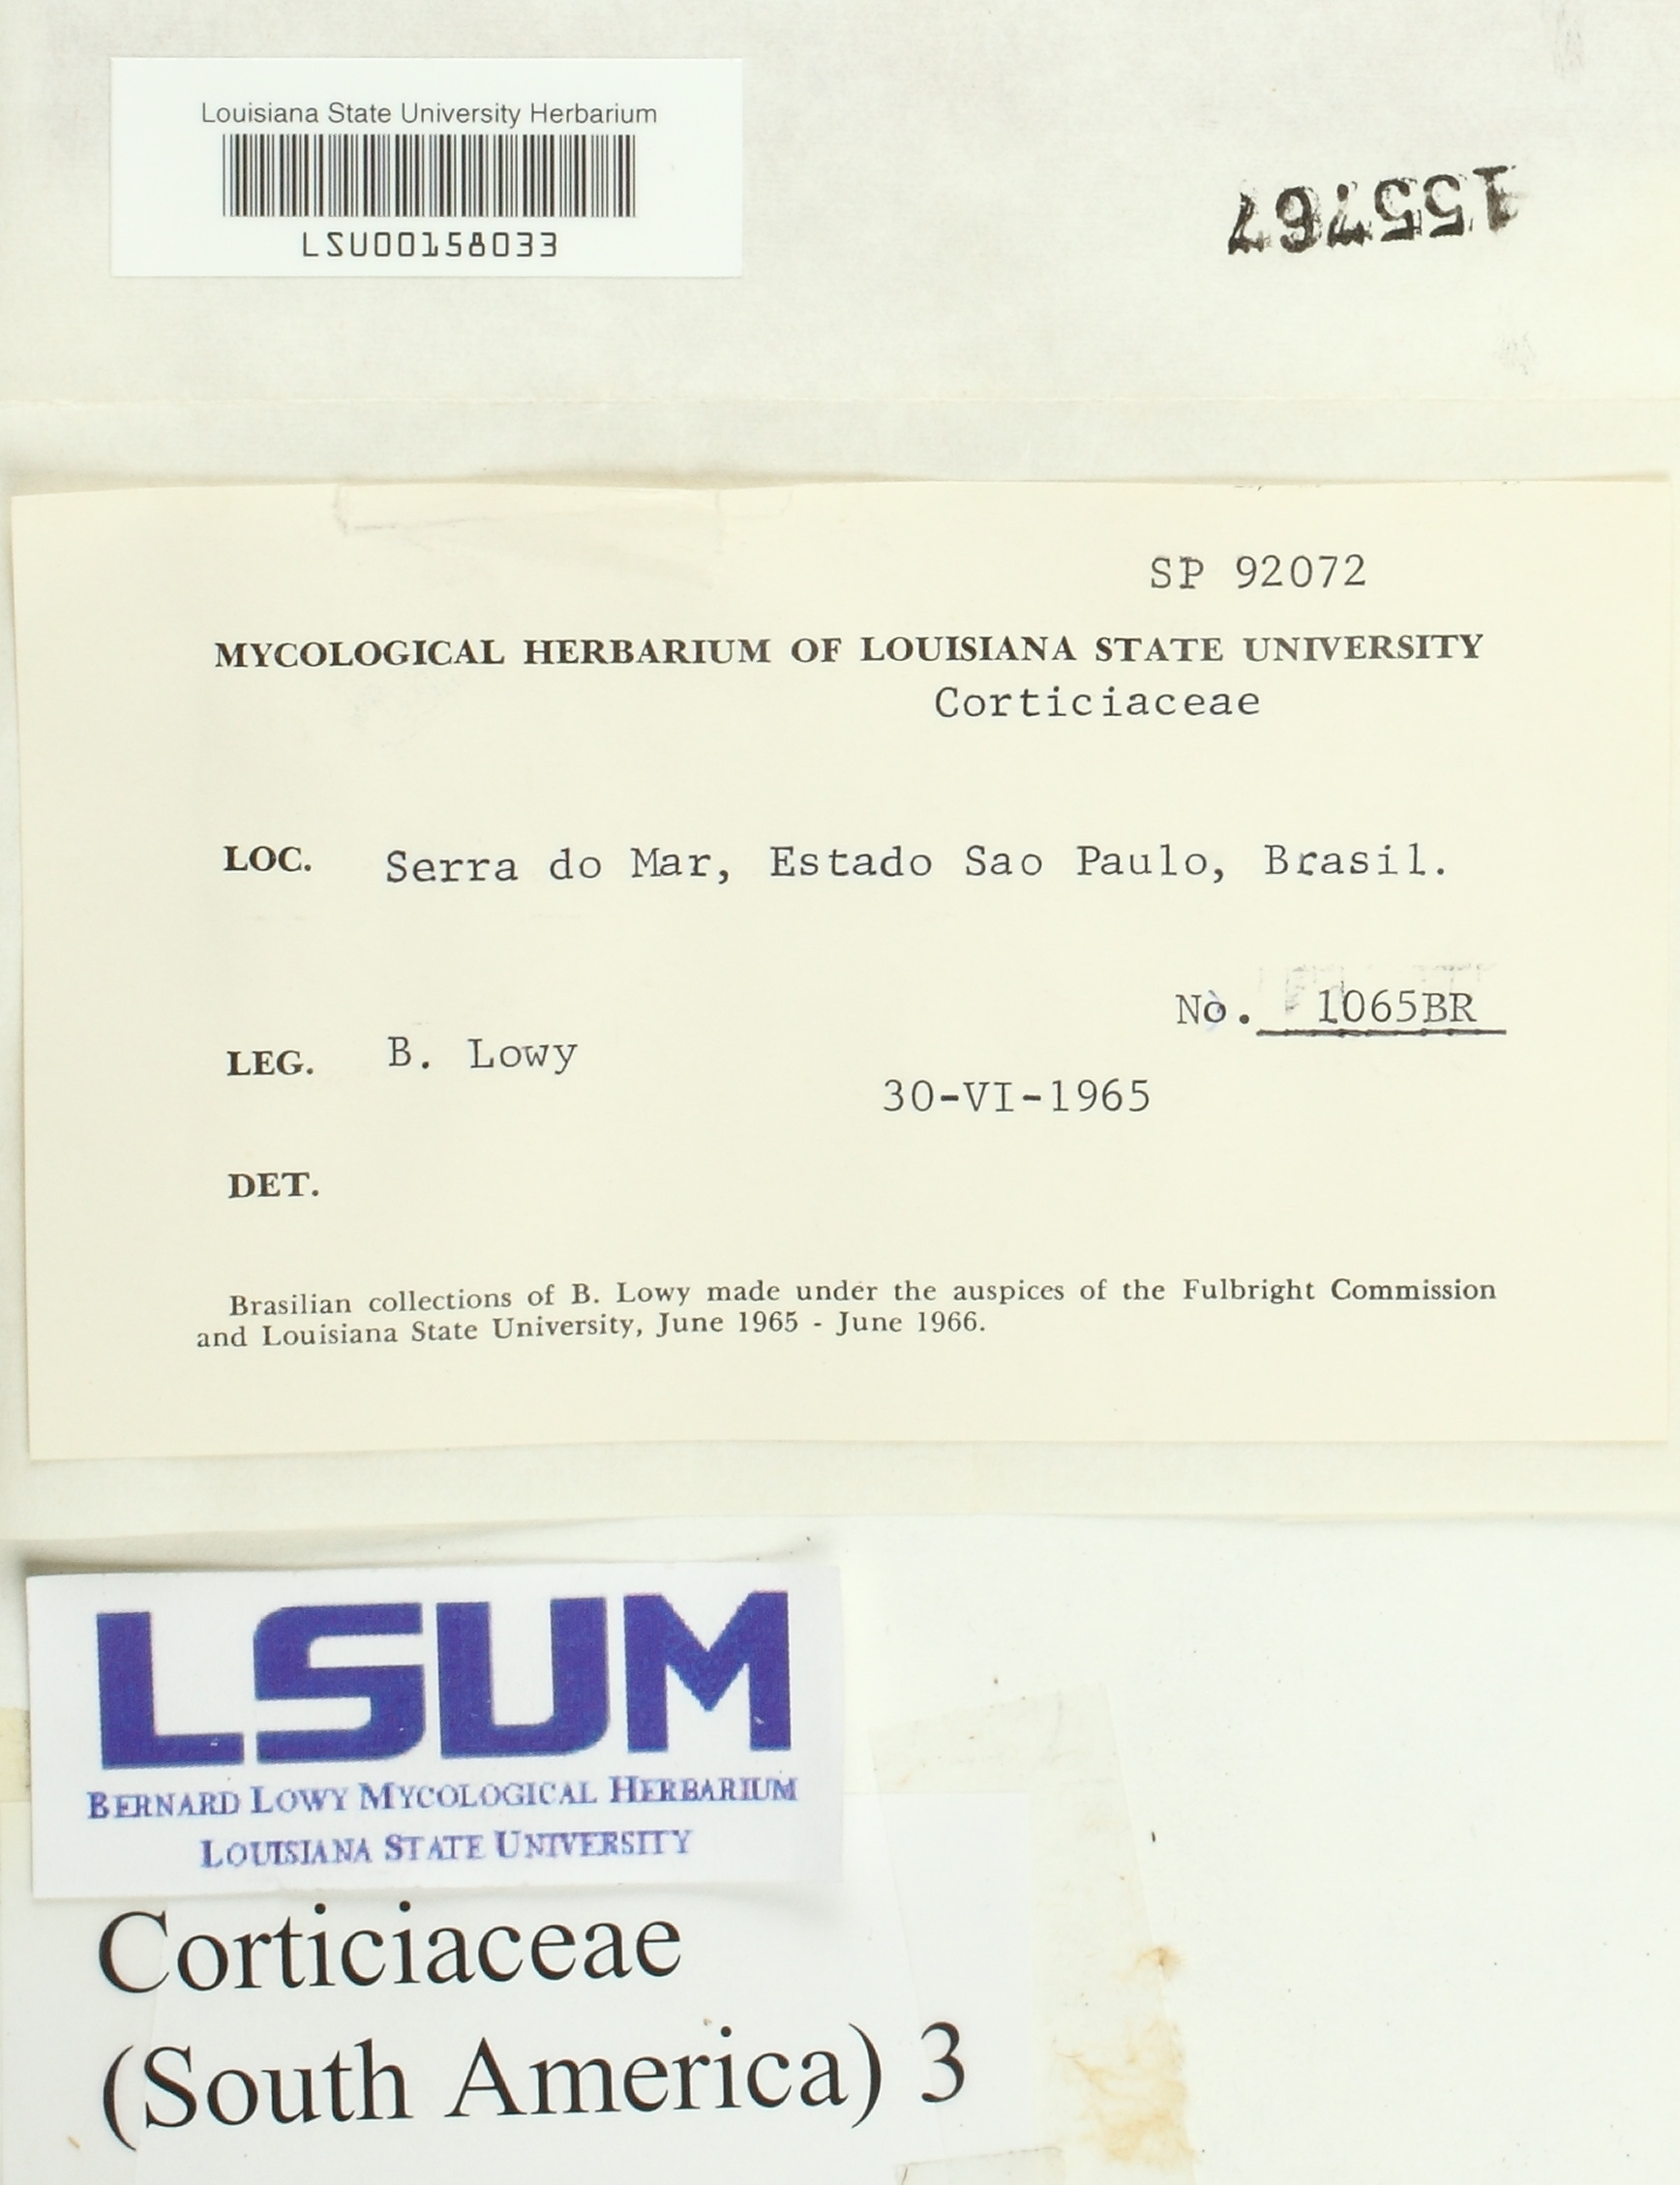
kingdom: Fungi
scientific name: Fungi
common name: Fungi
